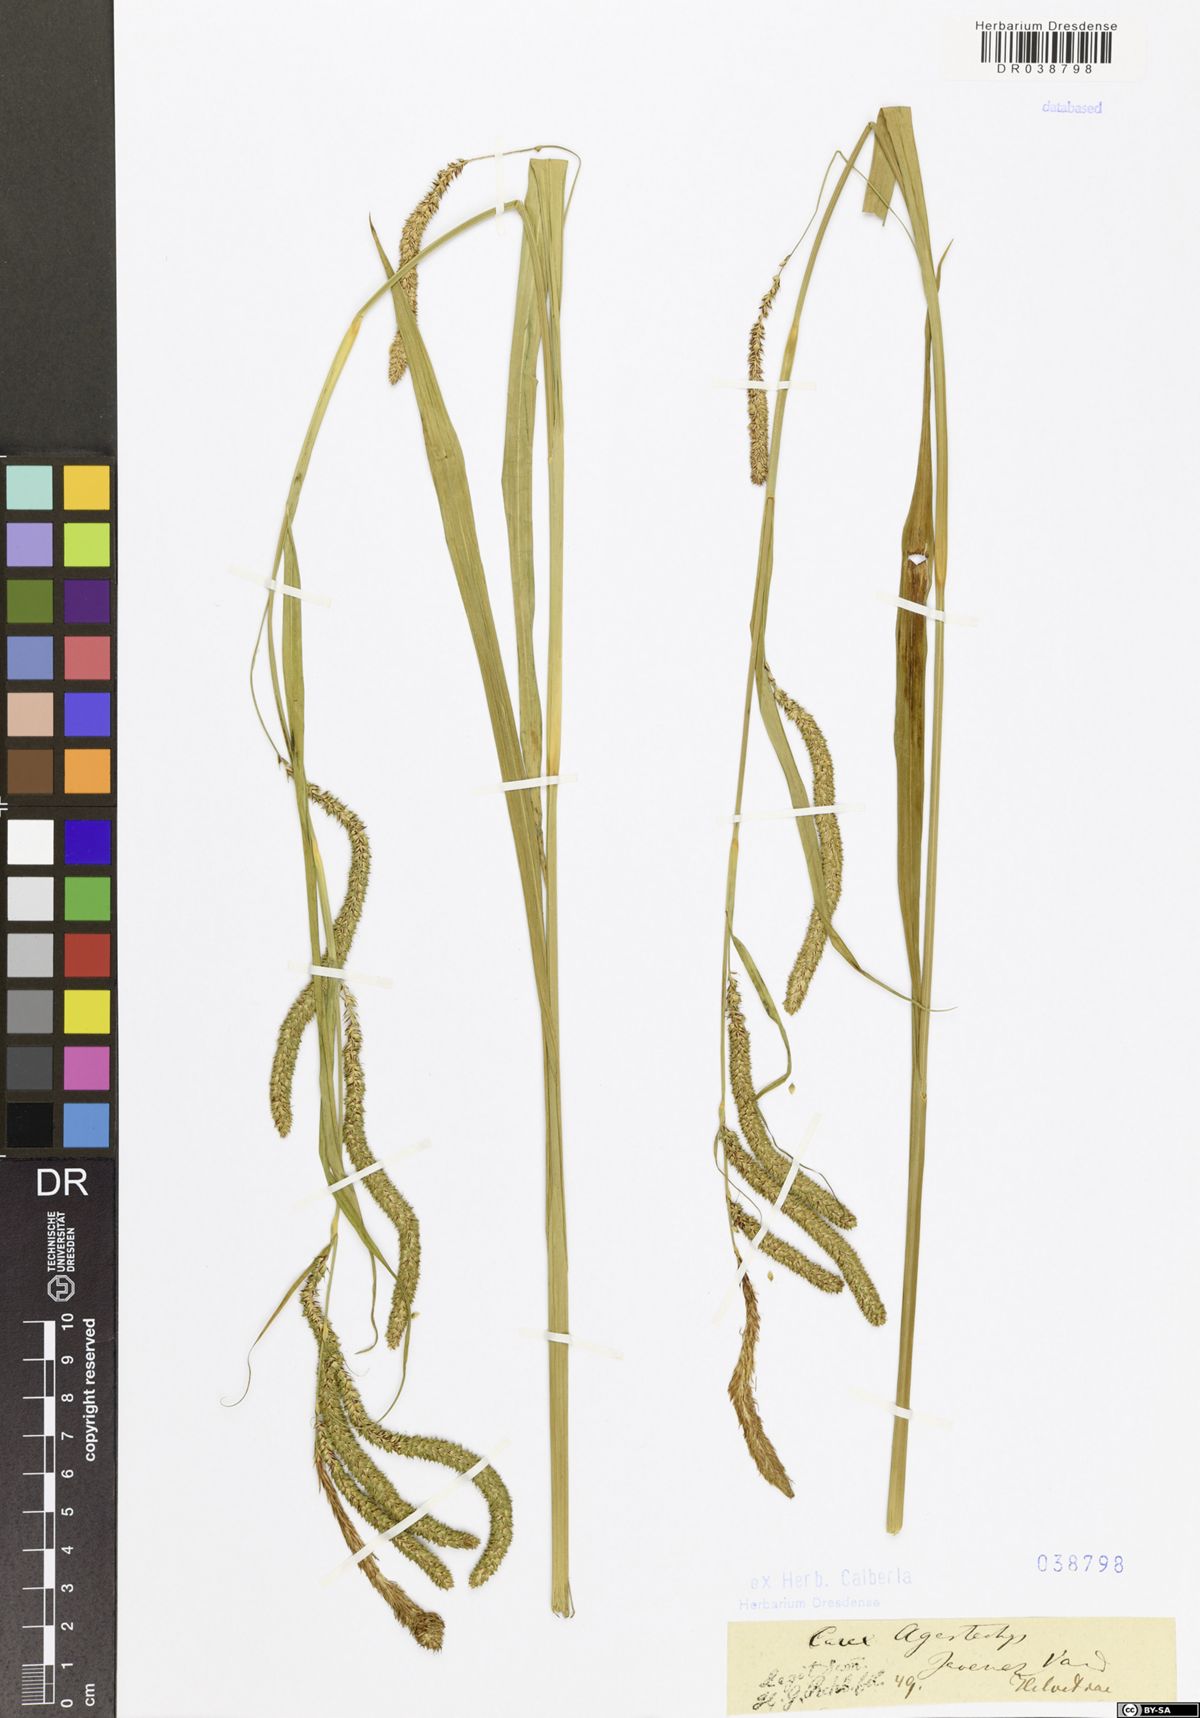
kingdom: Plantae
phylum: Tracheophyta
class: Liliopsida
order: Poales
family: Cyperaceae
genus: Carex
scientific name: Carex agastachys
